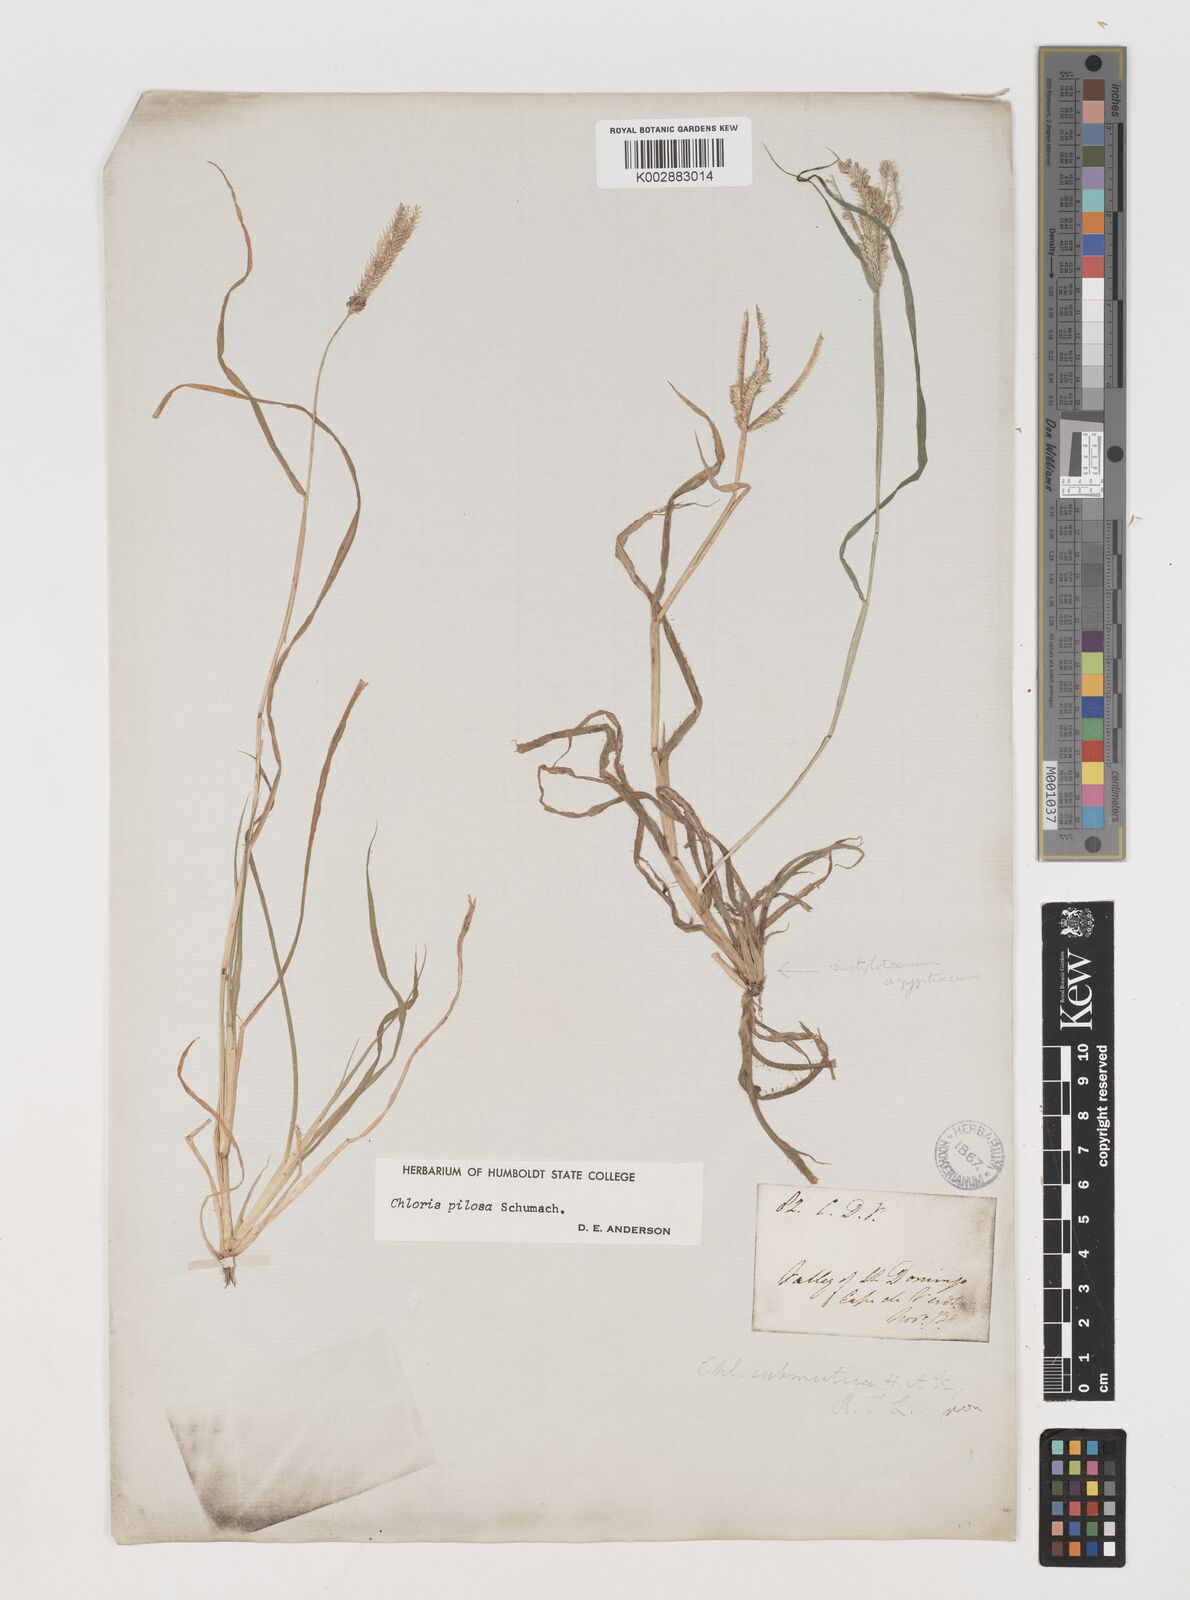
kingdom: Plantae
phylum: Tracheophyta
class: Liliopsida
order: Poales
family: Poaceae
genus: Chloris
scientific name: Chloris pilosa
